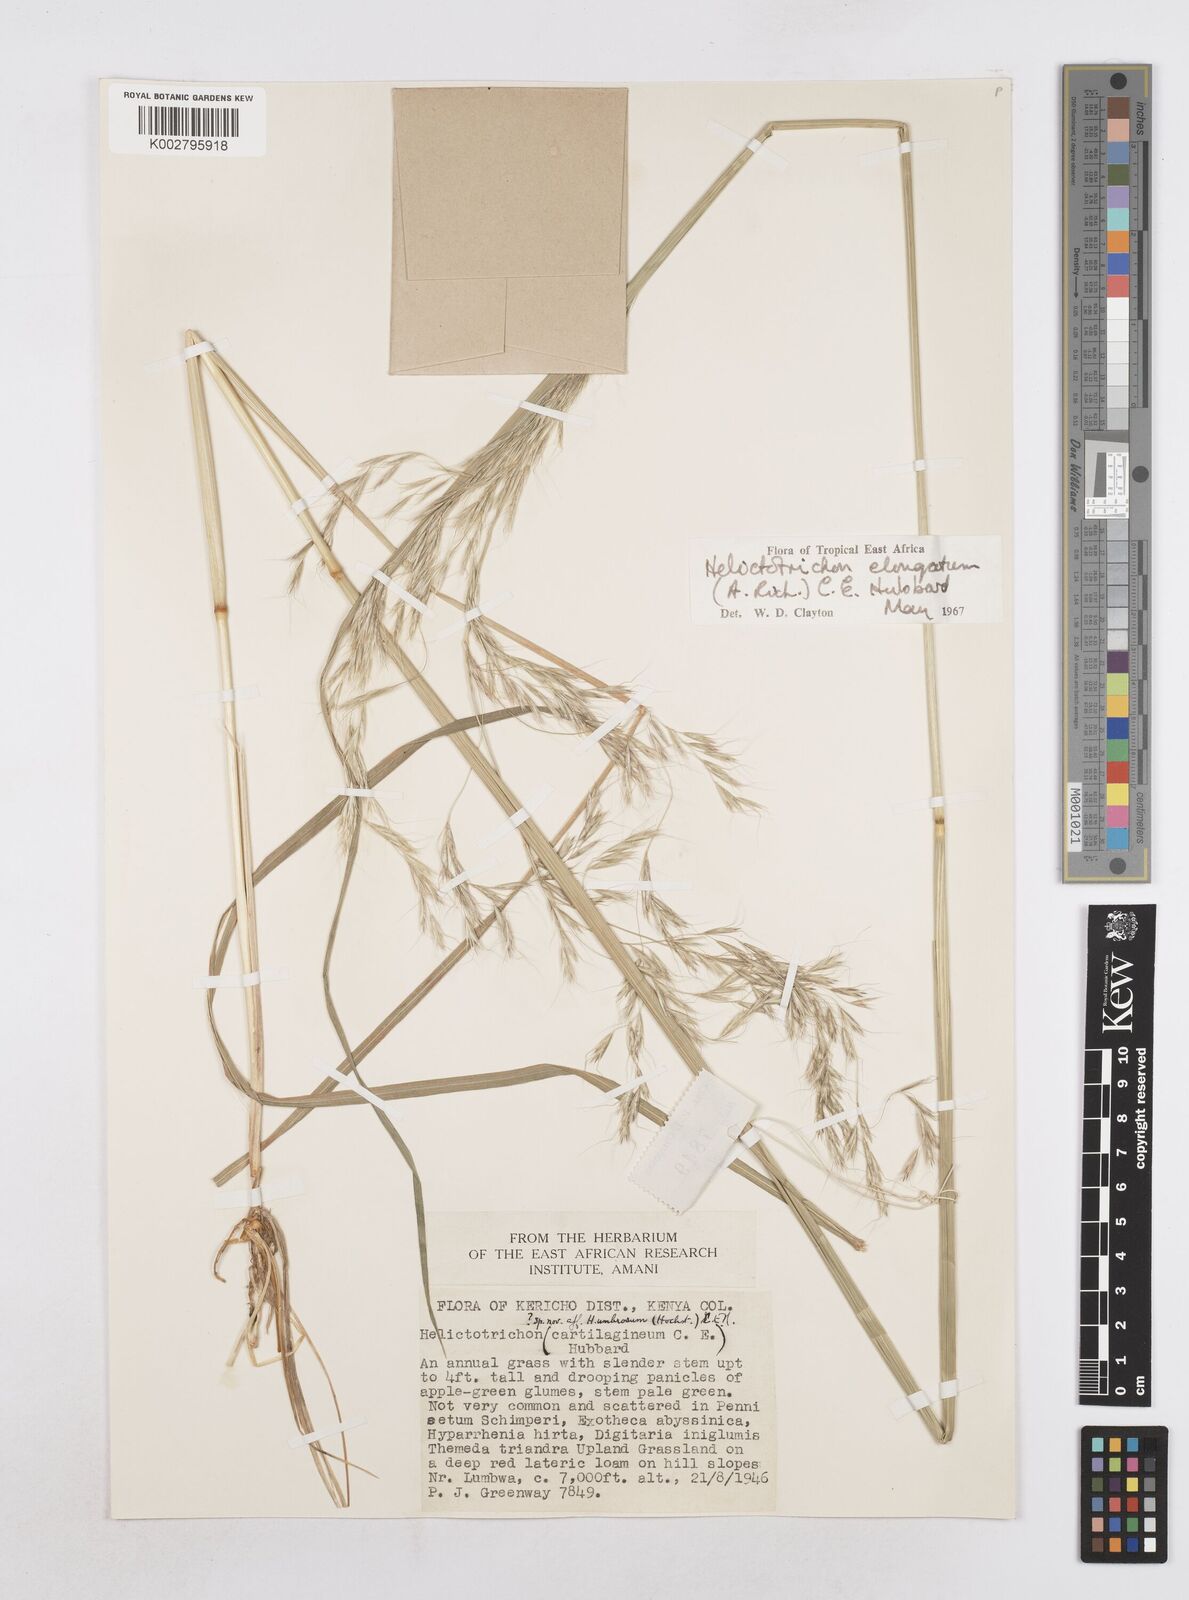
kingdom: Plantae
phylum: Tracheophyta
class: Liliopsida
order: Poales
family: Poaceae
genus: Trisetopsis
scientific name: Trisetopsis elongata
